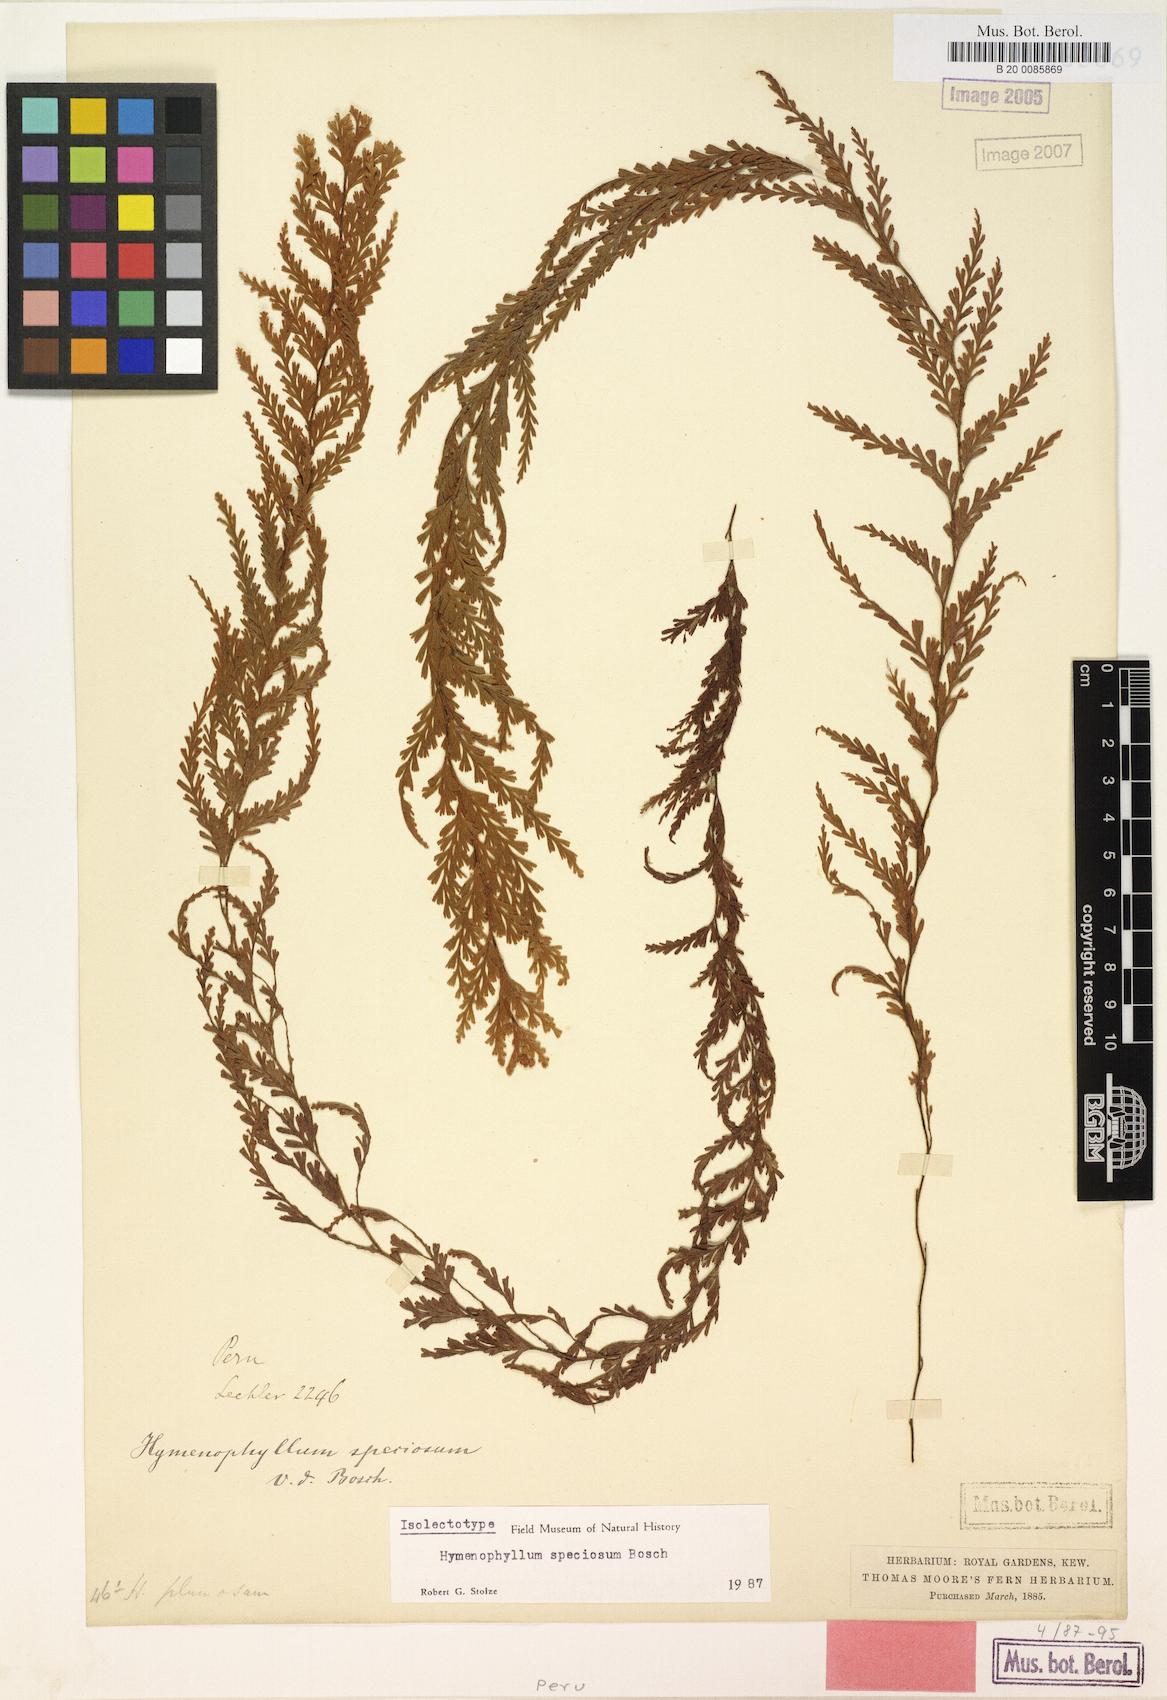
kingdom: Plantae
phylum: Tracheophyta
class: Polypodiopsida
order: Hymenophyllales
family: Hymenophyllaceae
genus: Hymenophyllum
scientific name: Hymenophyllum sericeum
